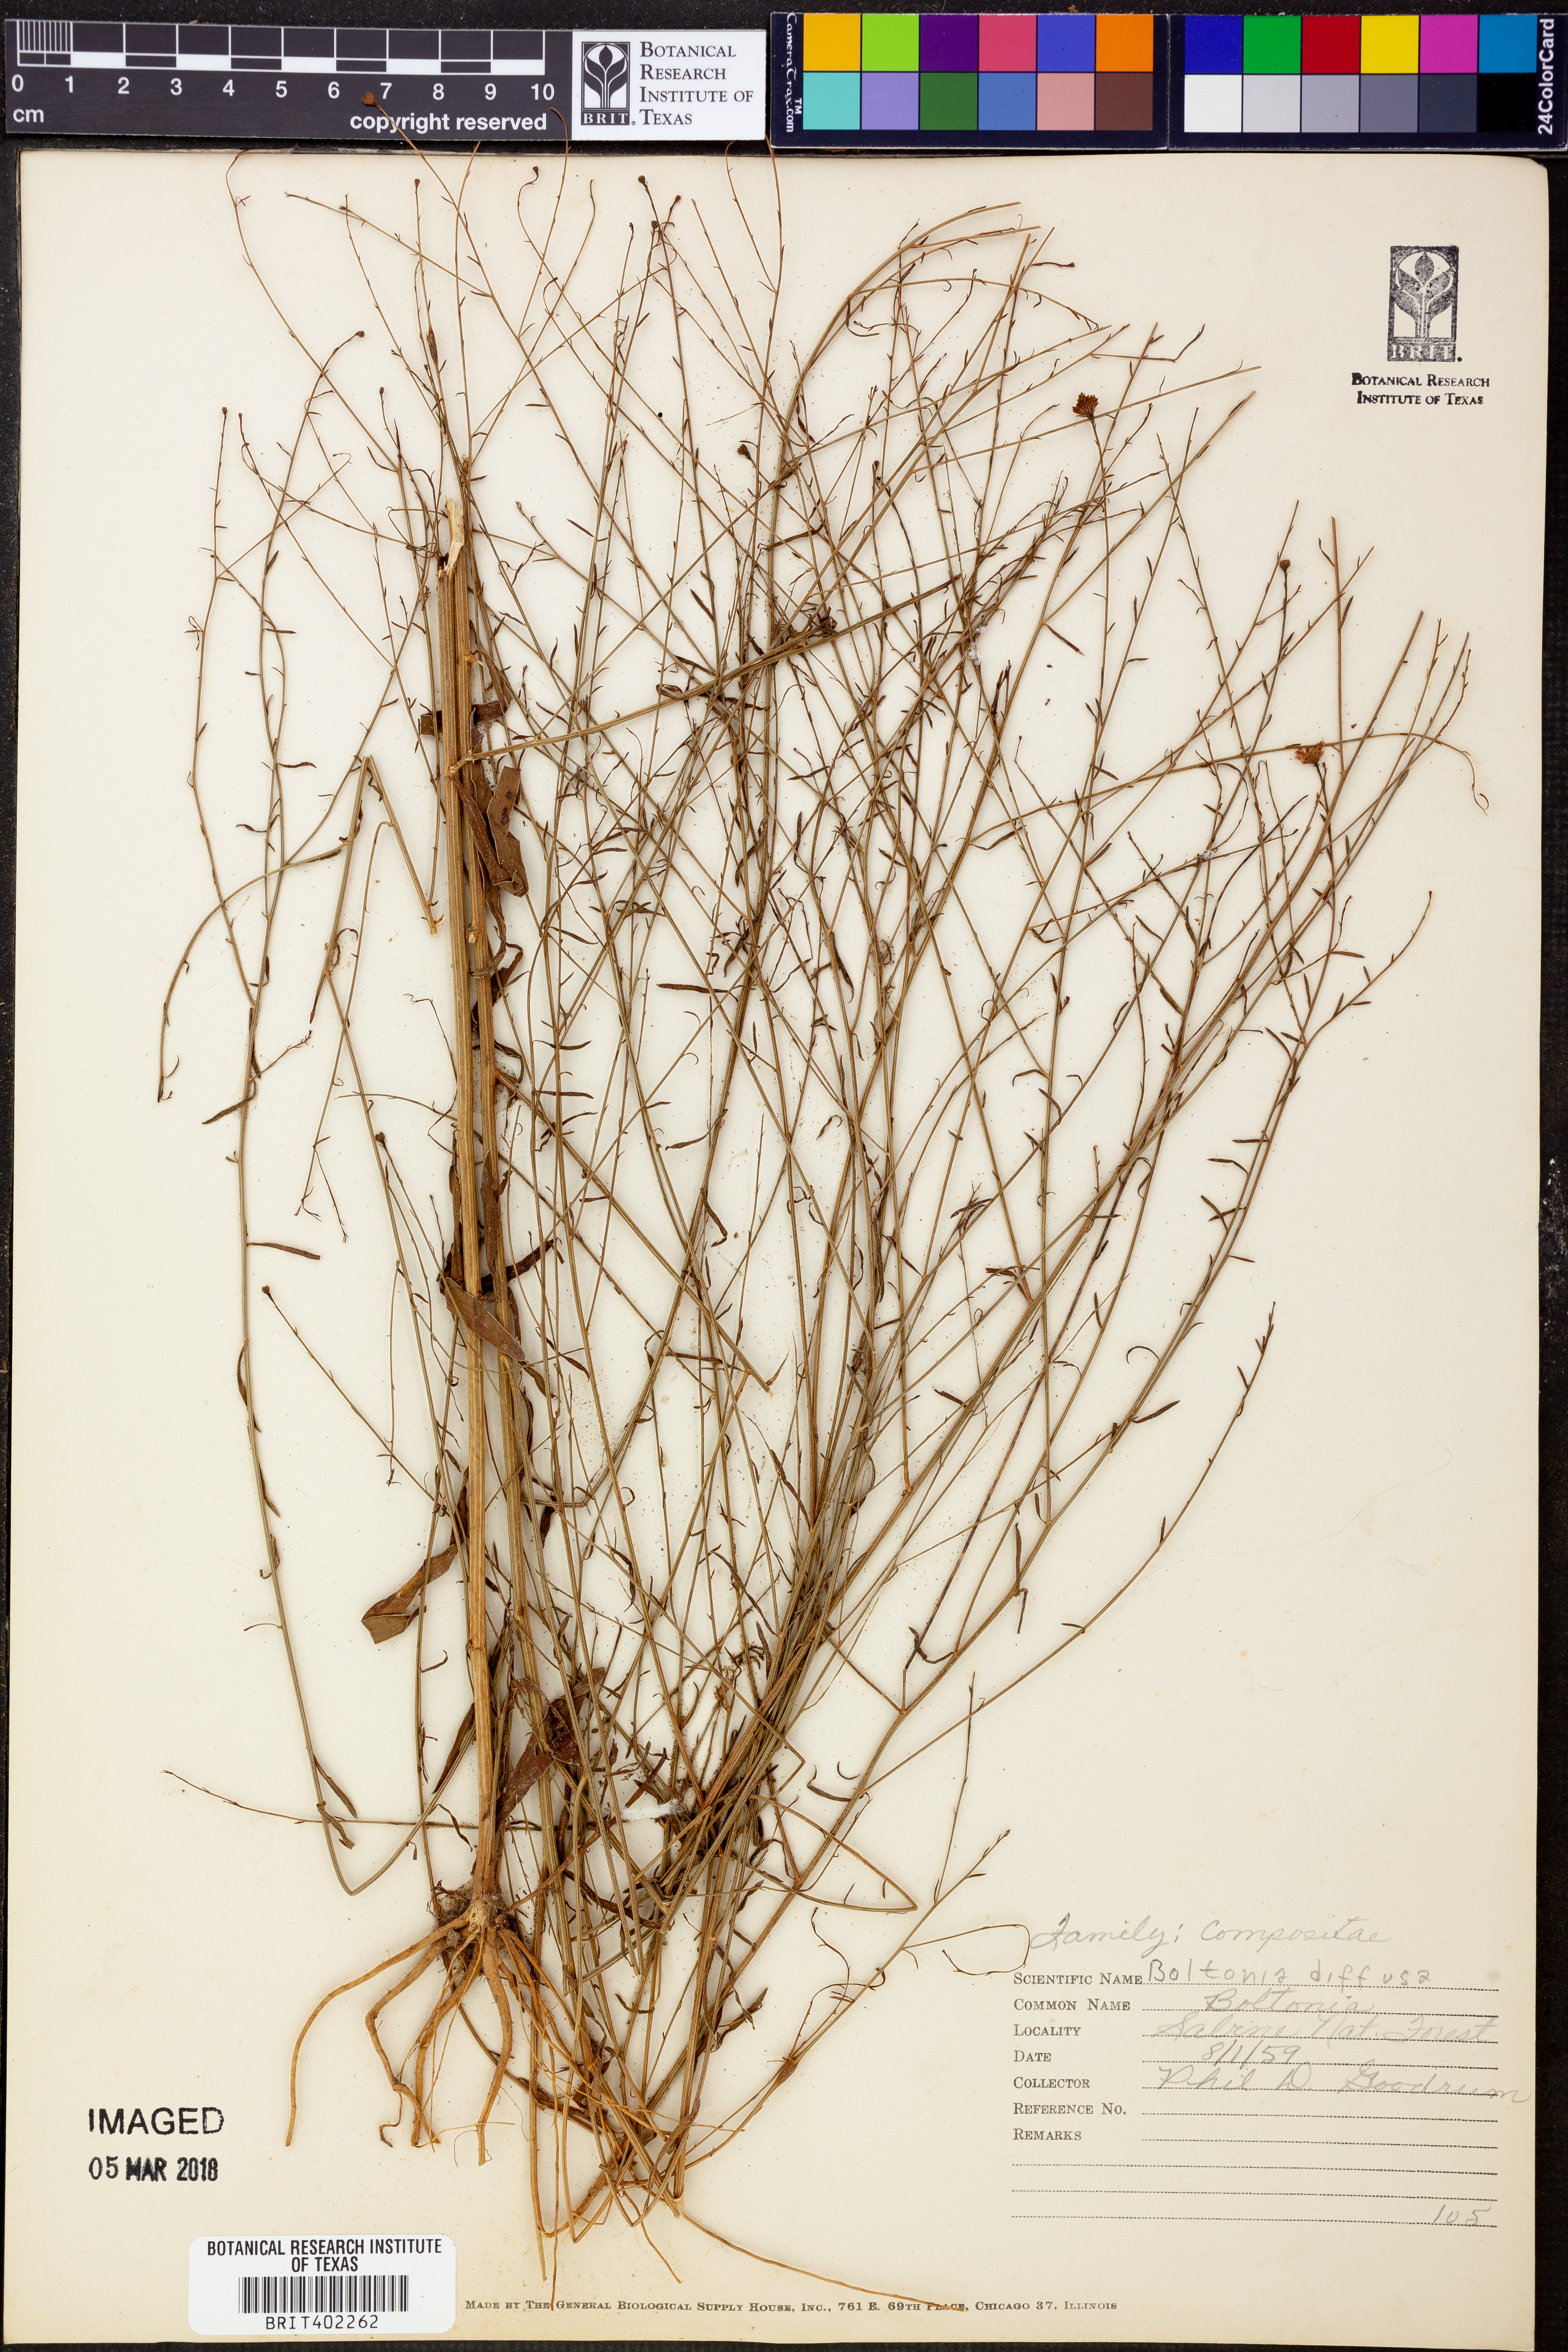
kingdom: Plantae
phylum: Tracheophyta
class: Magnoliopsida
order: Asterales
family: Asteraceae
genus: Boltonia
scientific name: Boltonia diffusa
